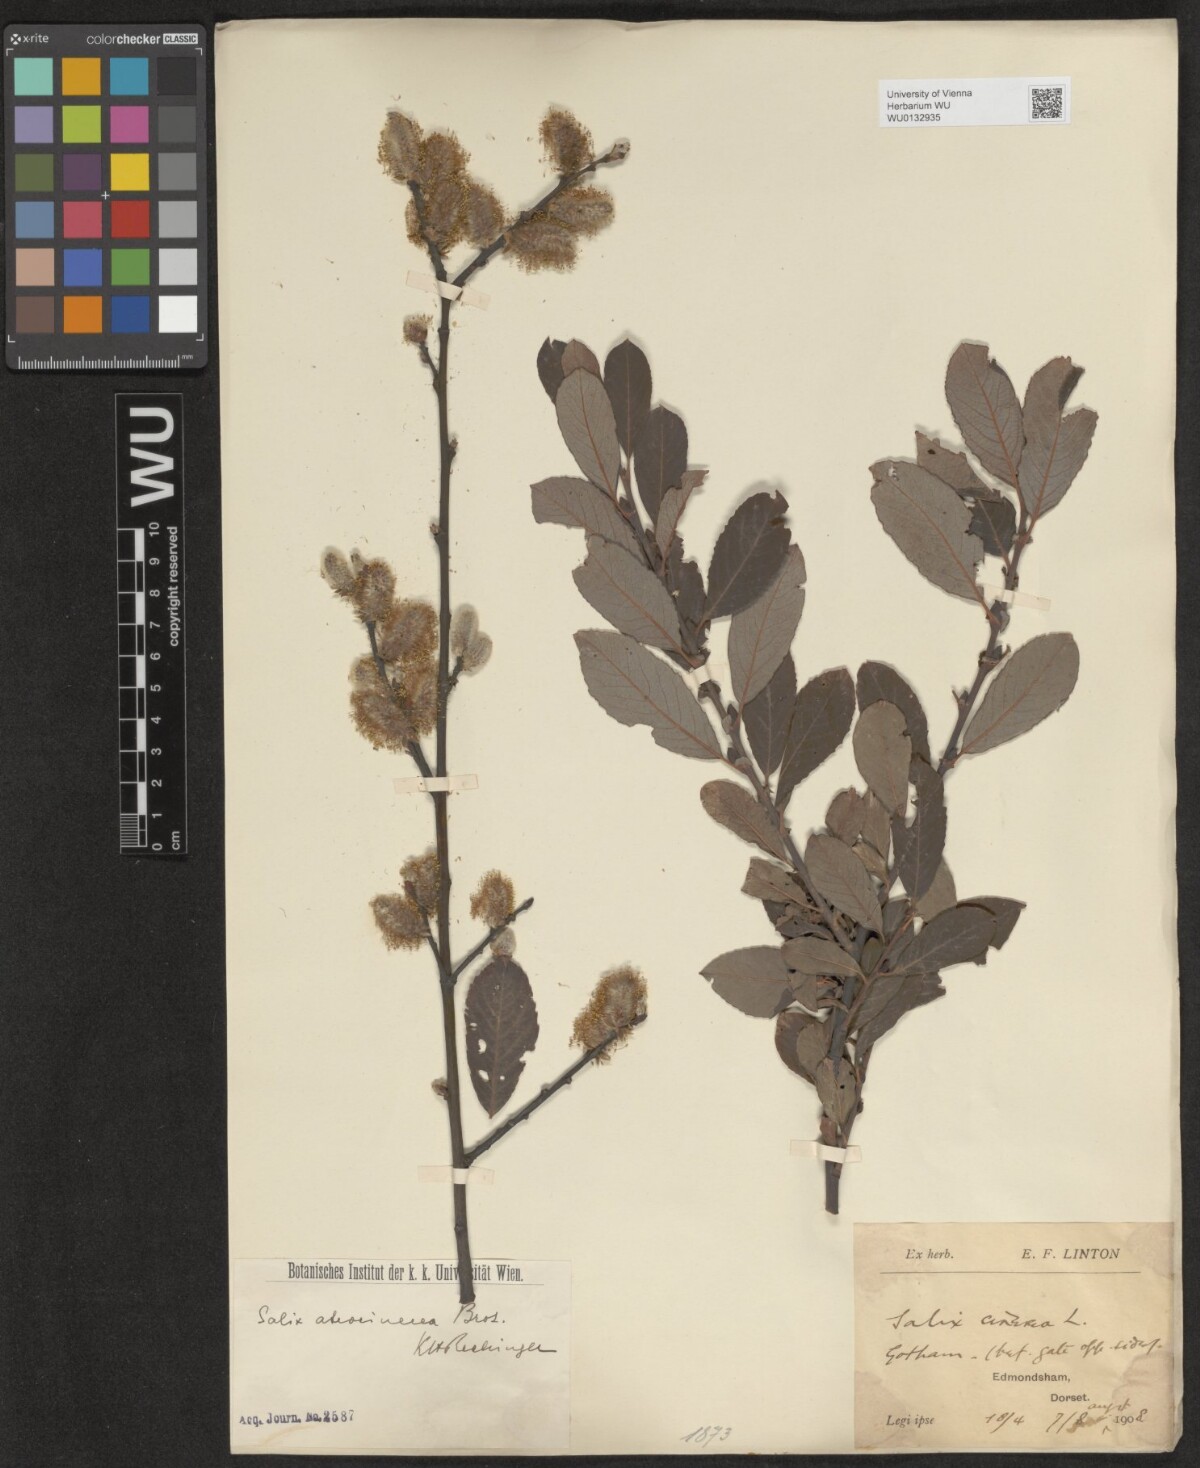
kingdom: Plantae
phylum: Tracheophyta
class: Magnoliopsida
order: Malpighiales
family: Salicaceae
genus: Salix
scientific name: Salix atrocinerea
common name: Rusty willow
